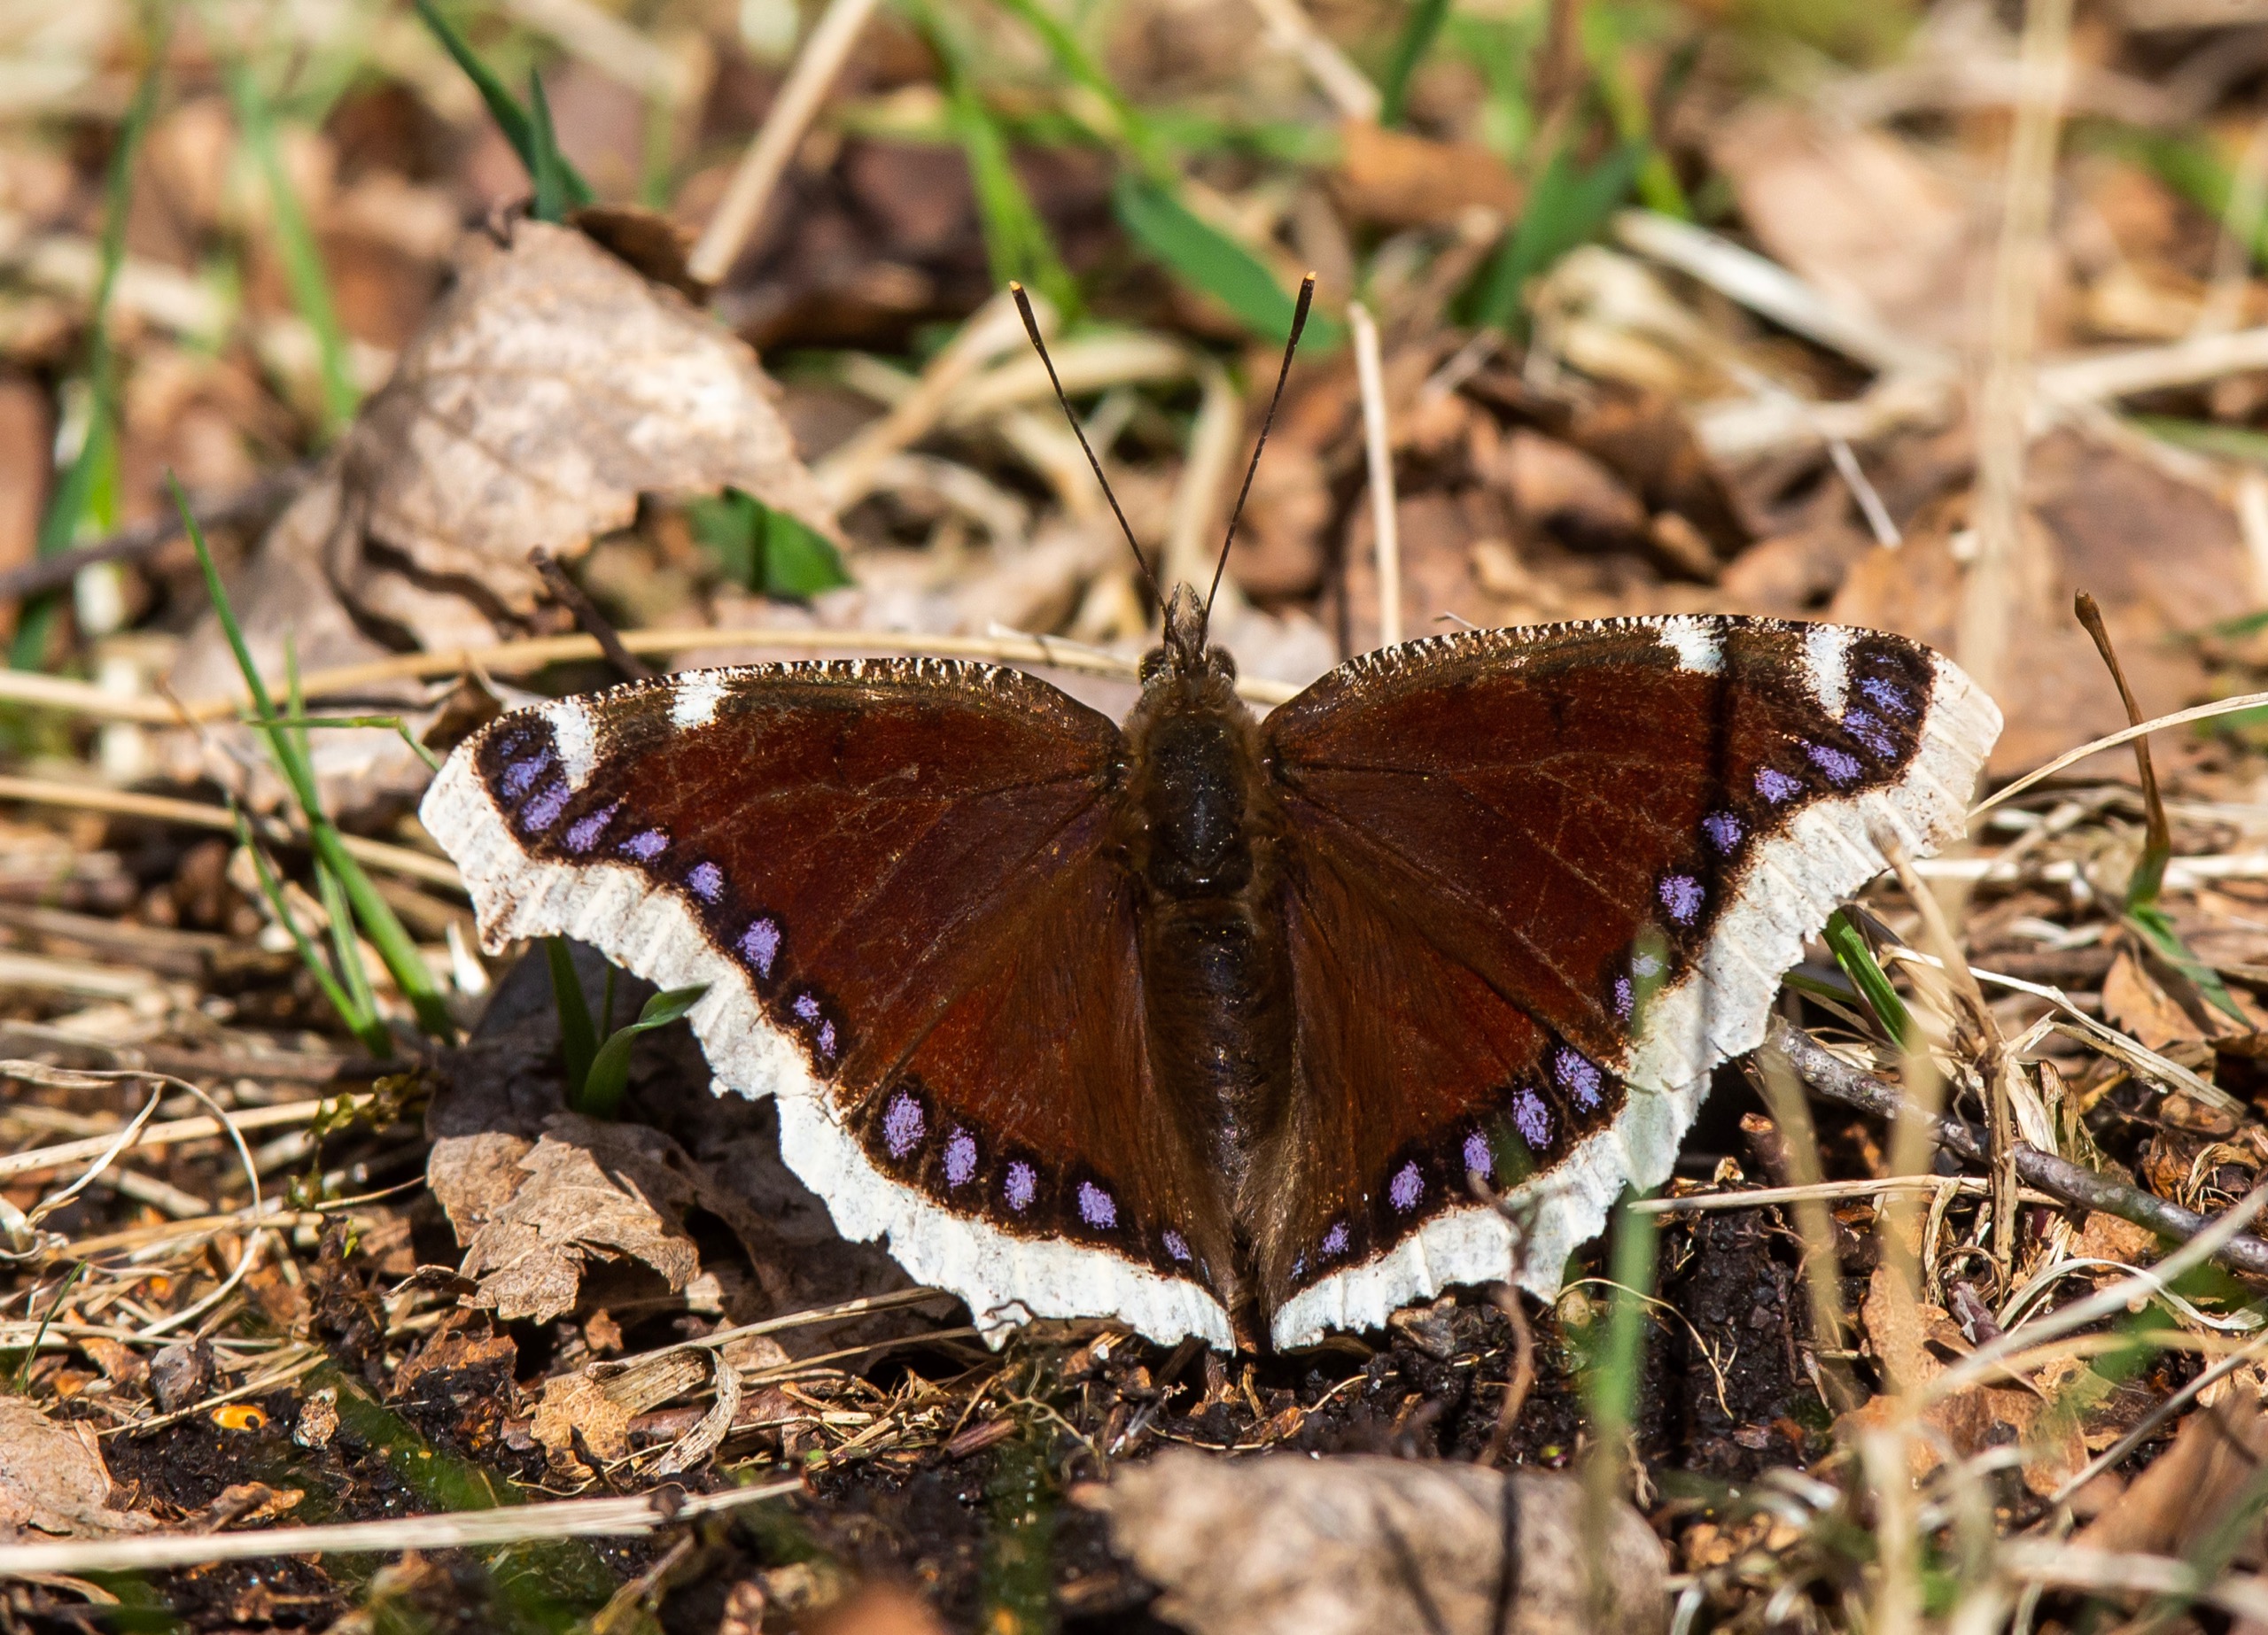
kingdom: Animalia
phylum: Arthropoda
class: Insecta
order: Lepidoptera
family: Nymphalidae
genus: Nymphalis
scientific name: Nymphalis antiopa
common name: Sørgekåbe
